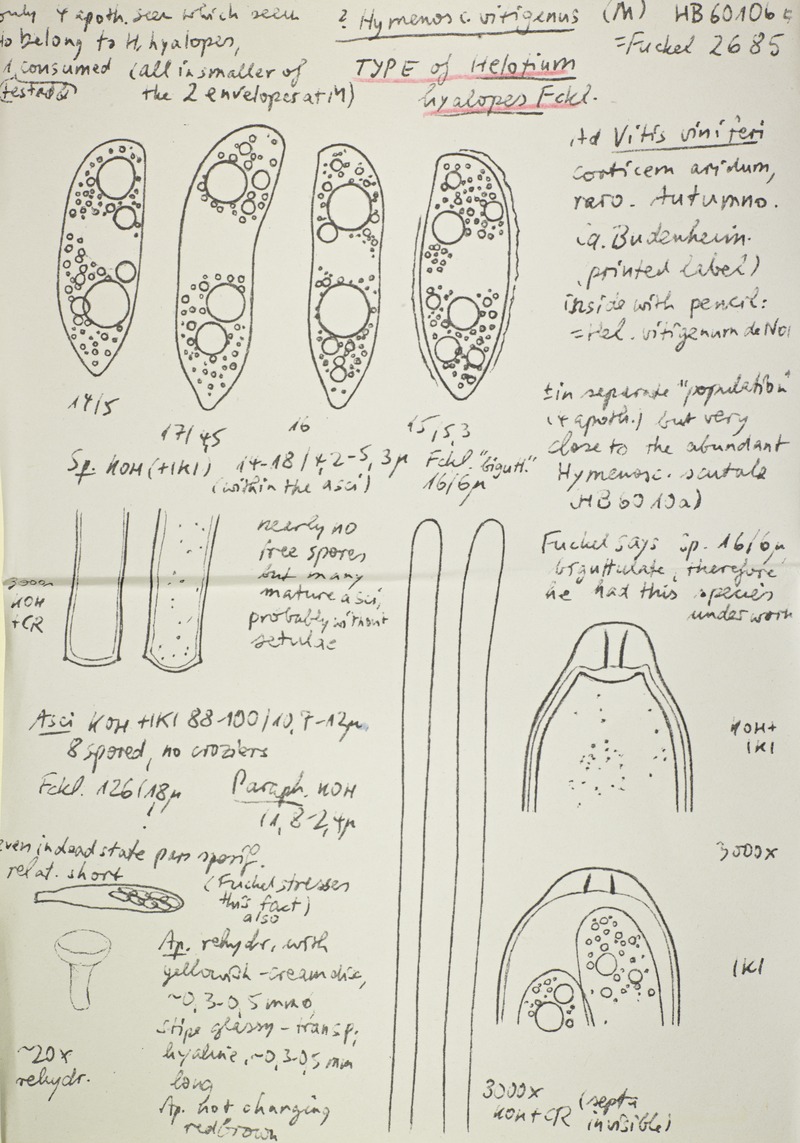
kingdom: Fungi
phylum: Ascomycota
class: Leotiomycetes
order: Helotiales
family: Helotiaceae
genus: Hymenoscyphus
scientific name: Hymenoscyphus vitigenus
